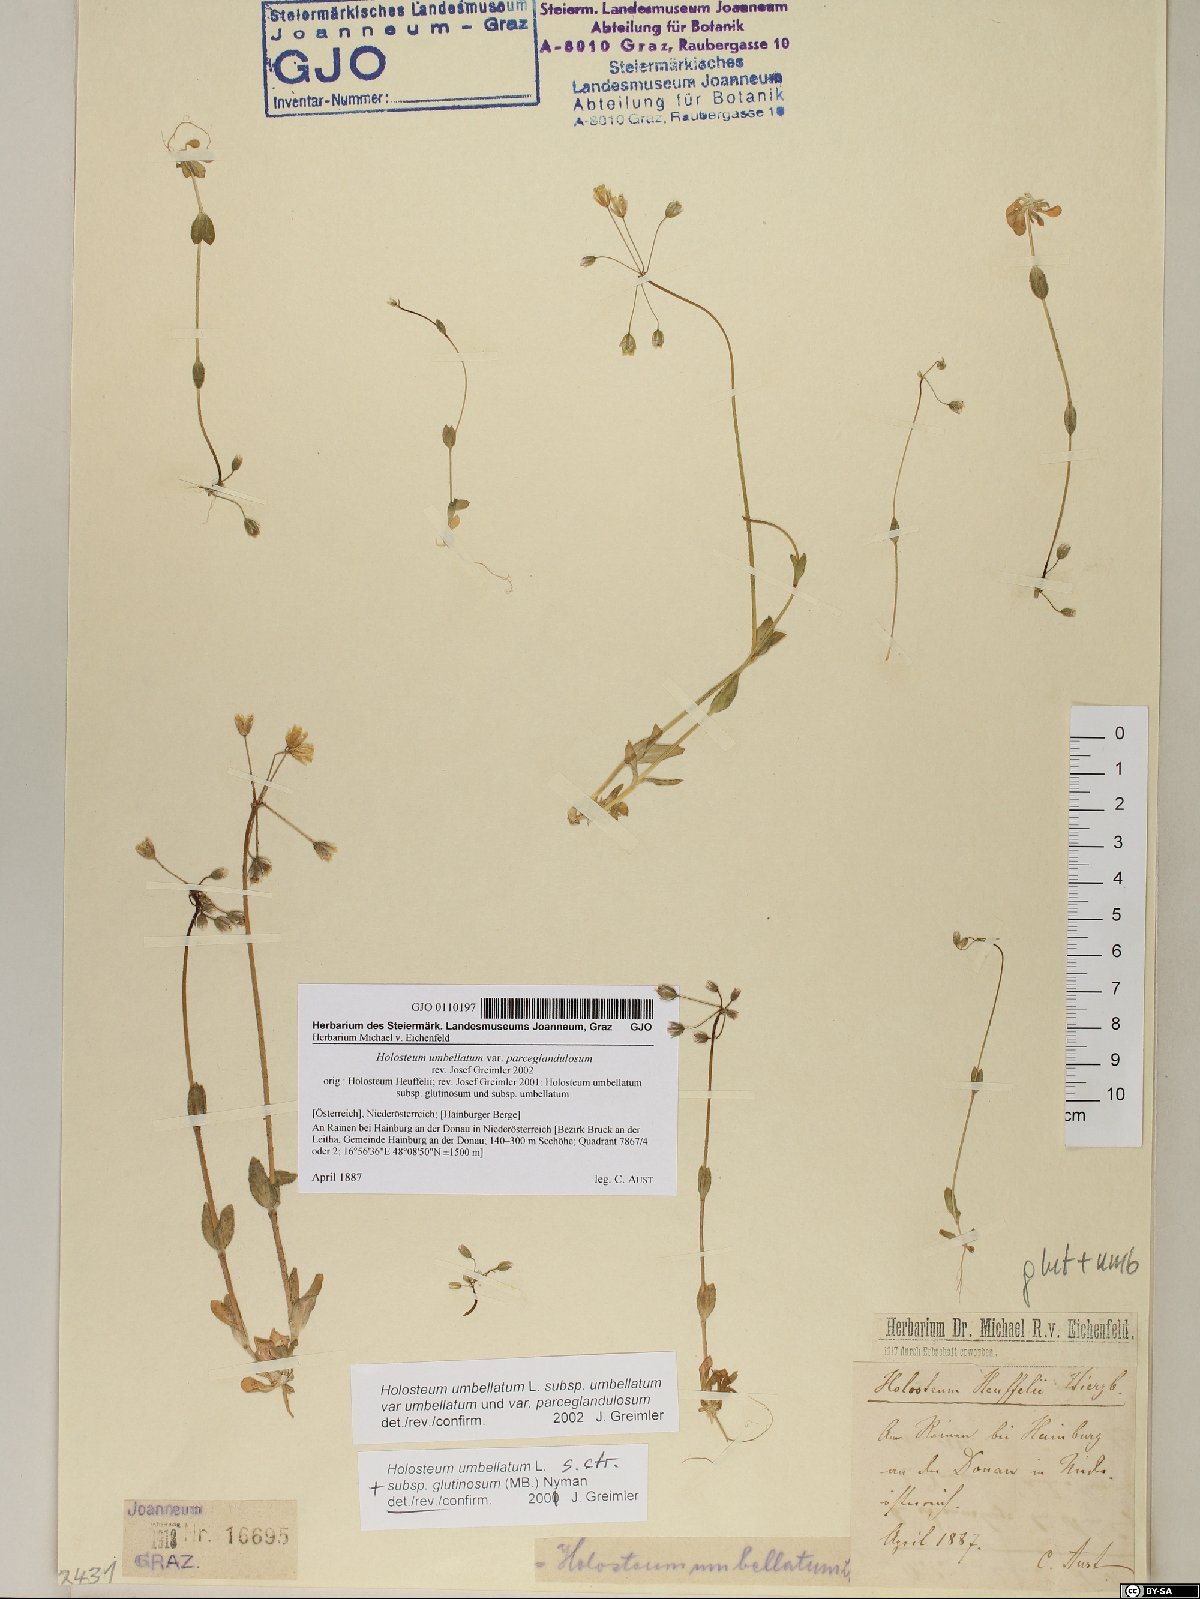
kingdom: Plantae
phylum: Tracheophyta
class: Magnoliopsida
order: Caryophyllales
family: Caryophyllaceae
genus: Holosteum
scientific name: Holosteum umbellatum
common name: Jagged chickweed
